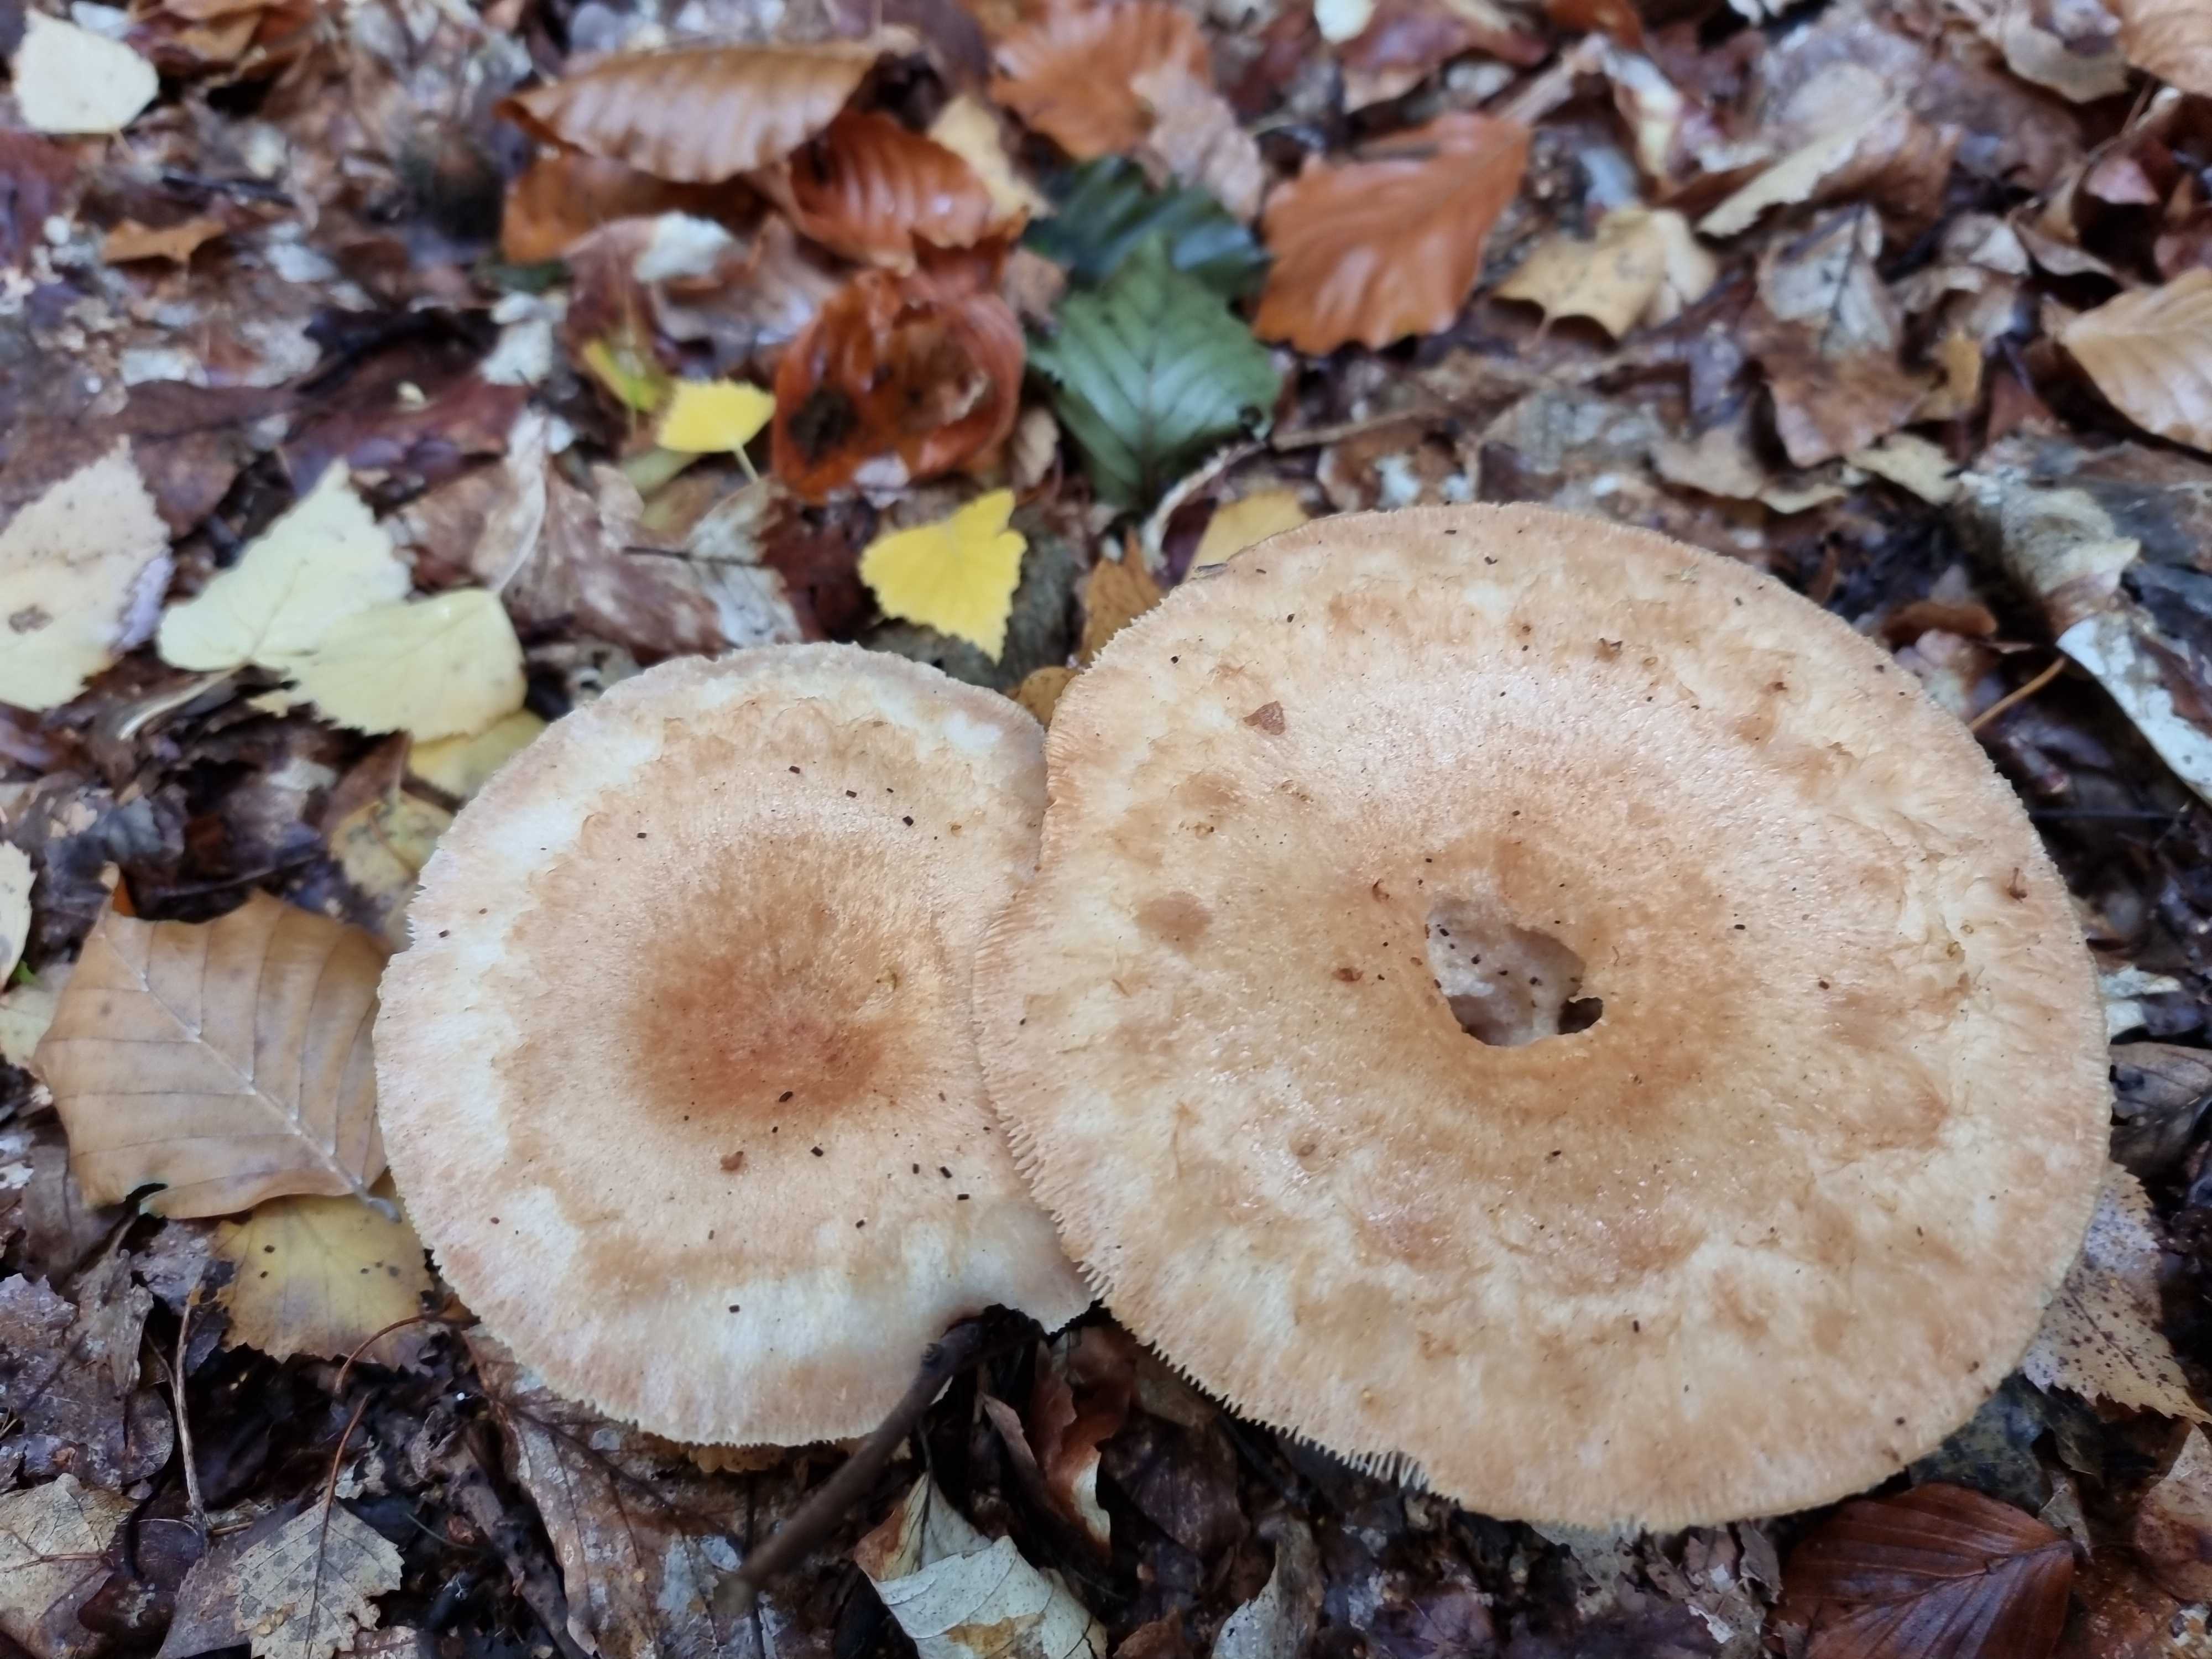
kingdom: Fungi
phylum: Basidiomycota
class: Agaricomycetes
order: Russulales
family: Russulaceae
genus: Lactarius
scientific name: Lactarius
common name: mælkehat
